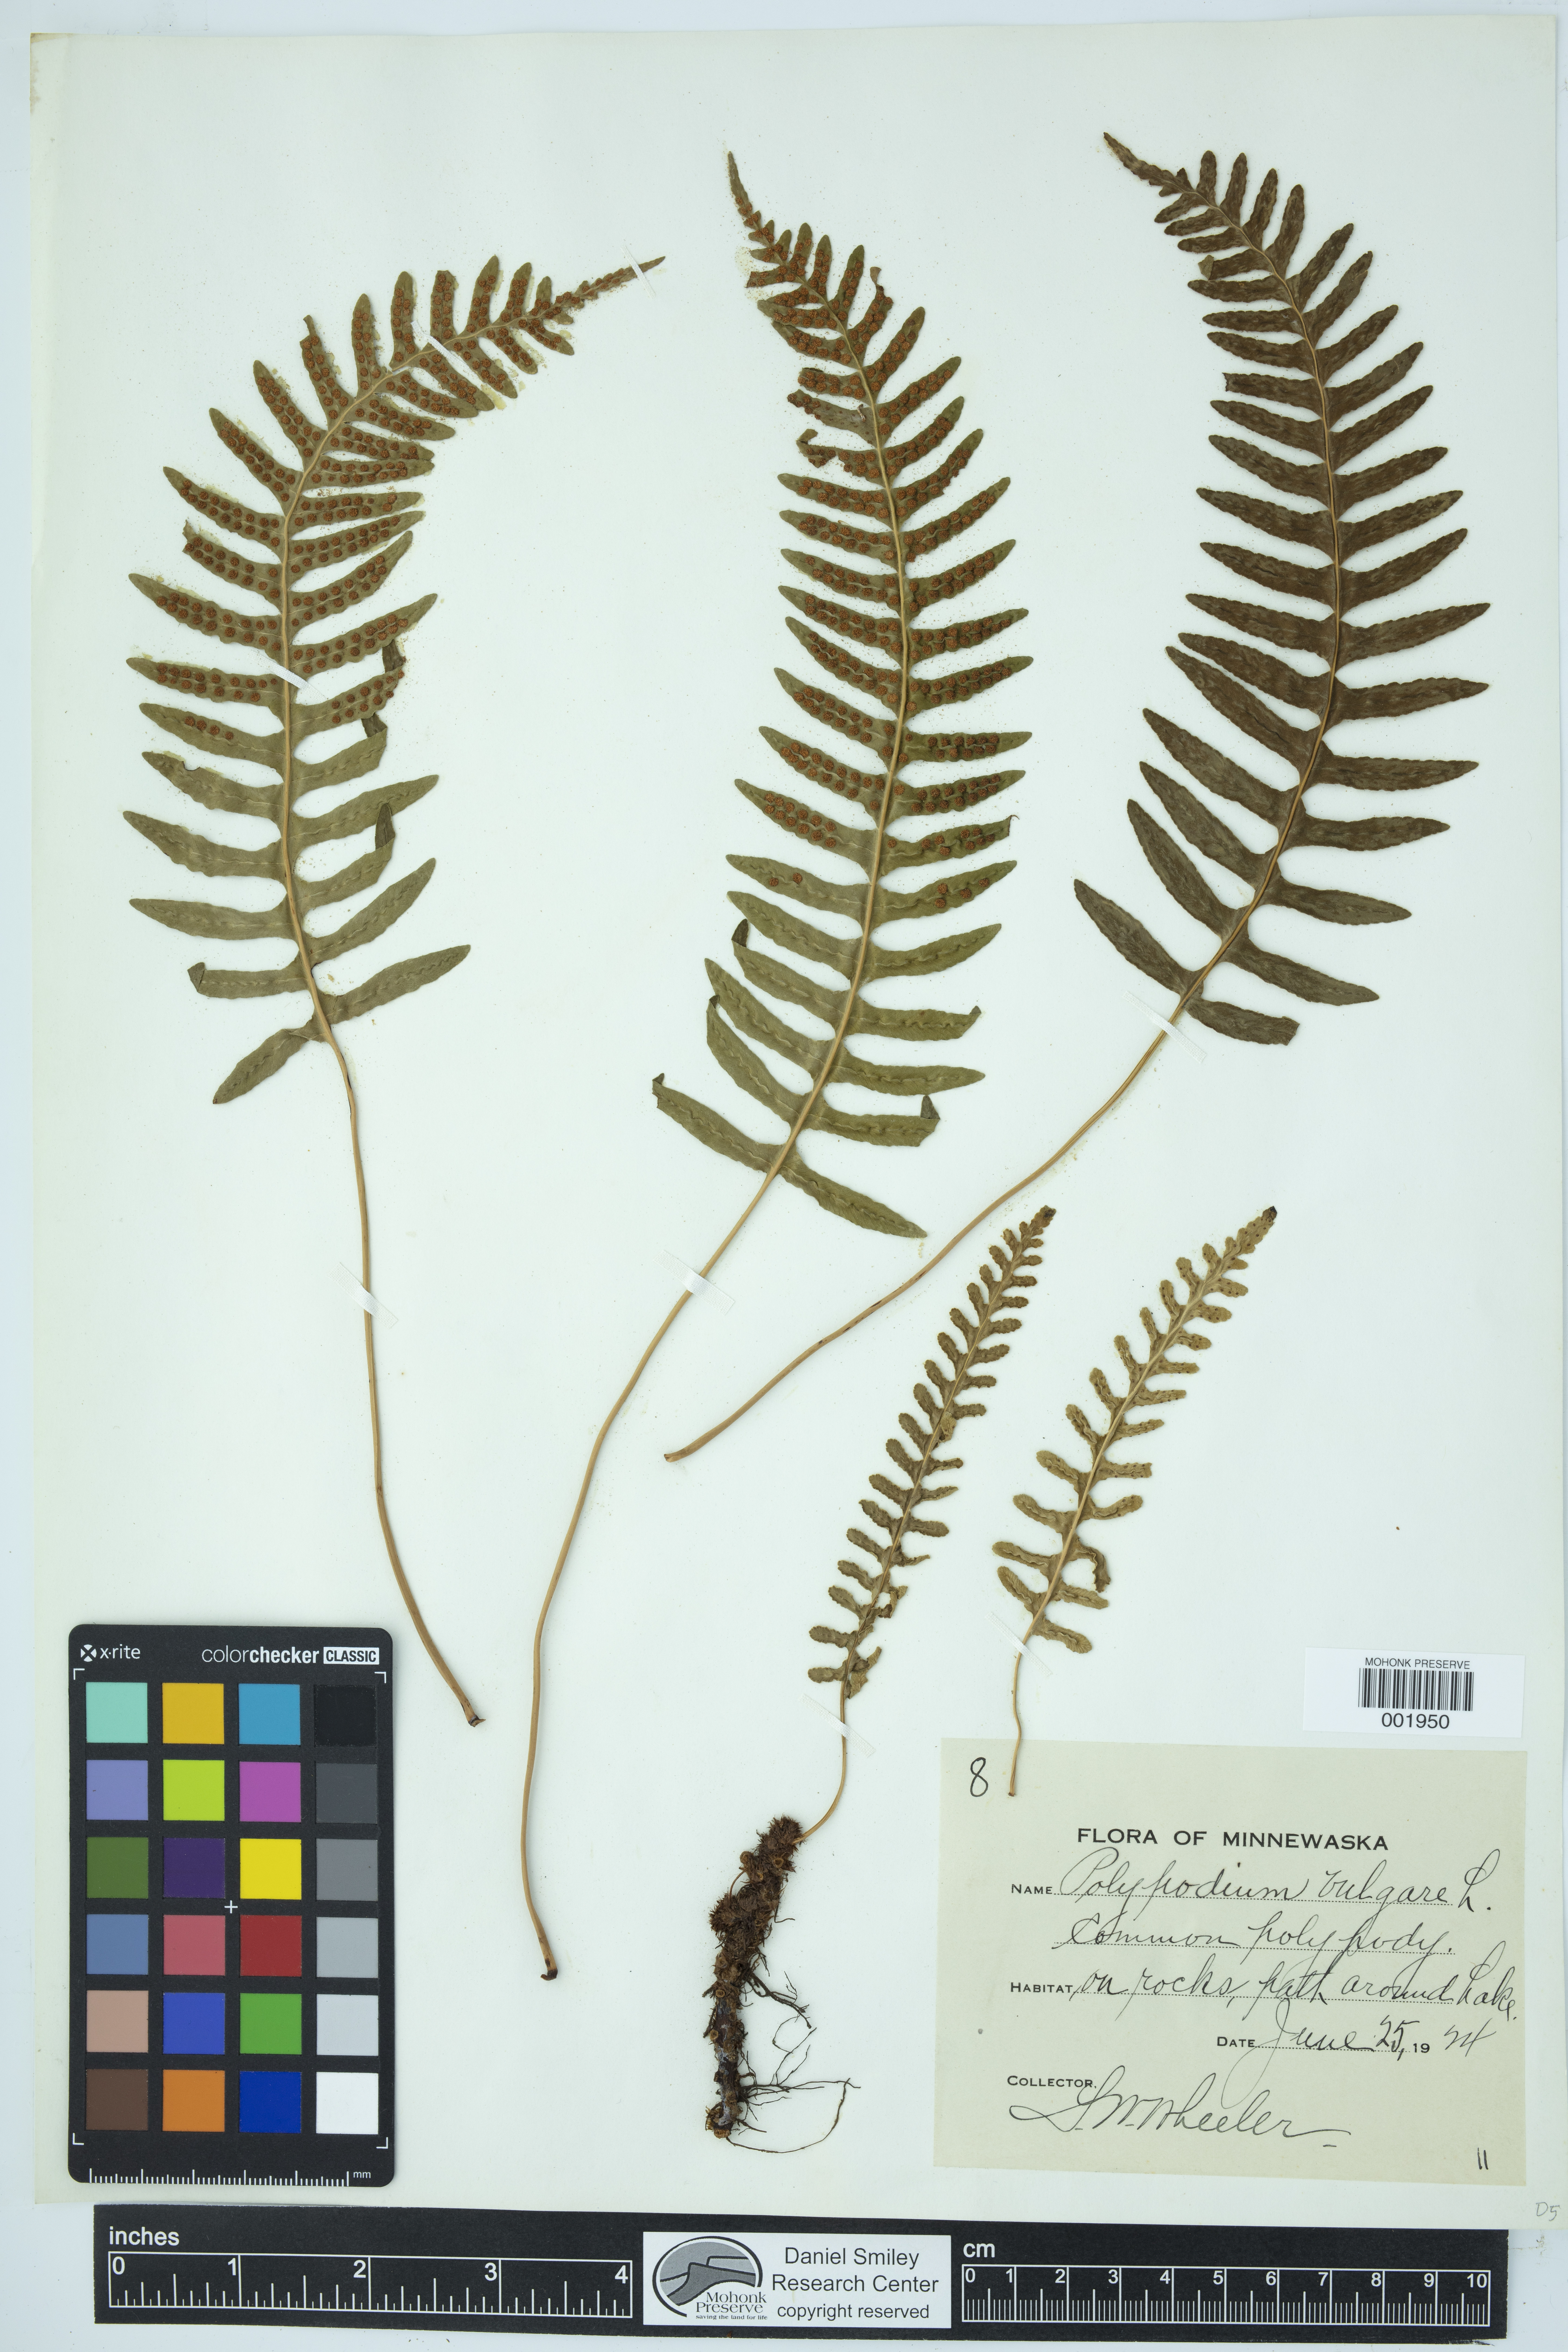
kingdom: Plantae
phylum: Tracheophyta
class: Polypodiopsida
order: Polypodiales
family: Polypodiaceae
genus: Polypodium
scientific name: Polypodium virginianum
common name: American wall fern
